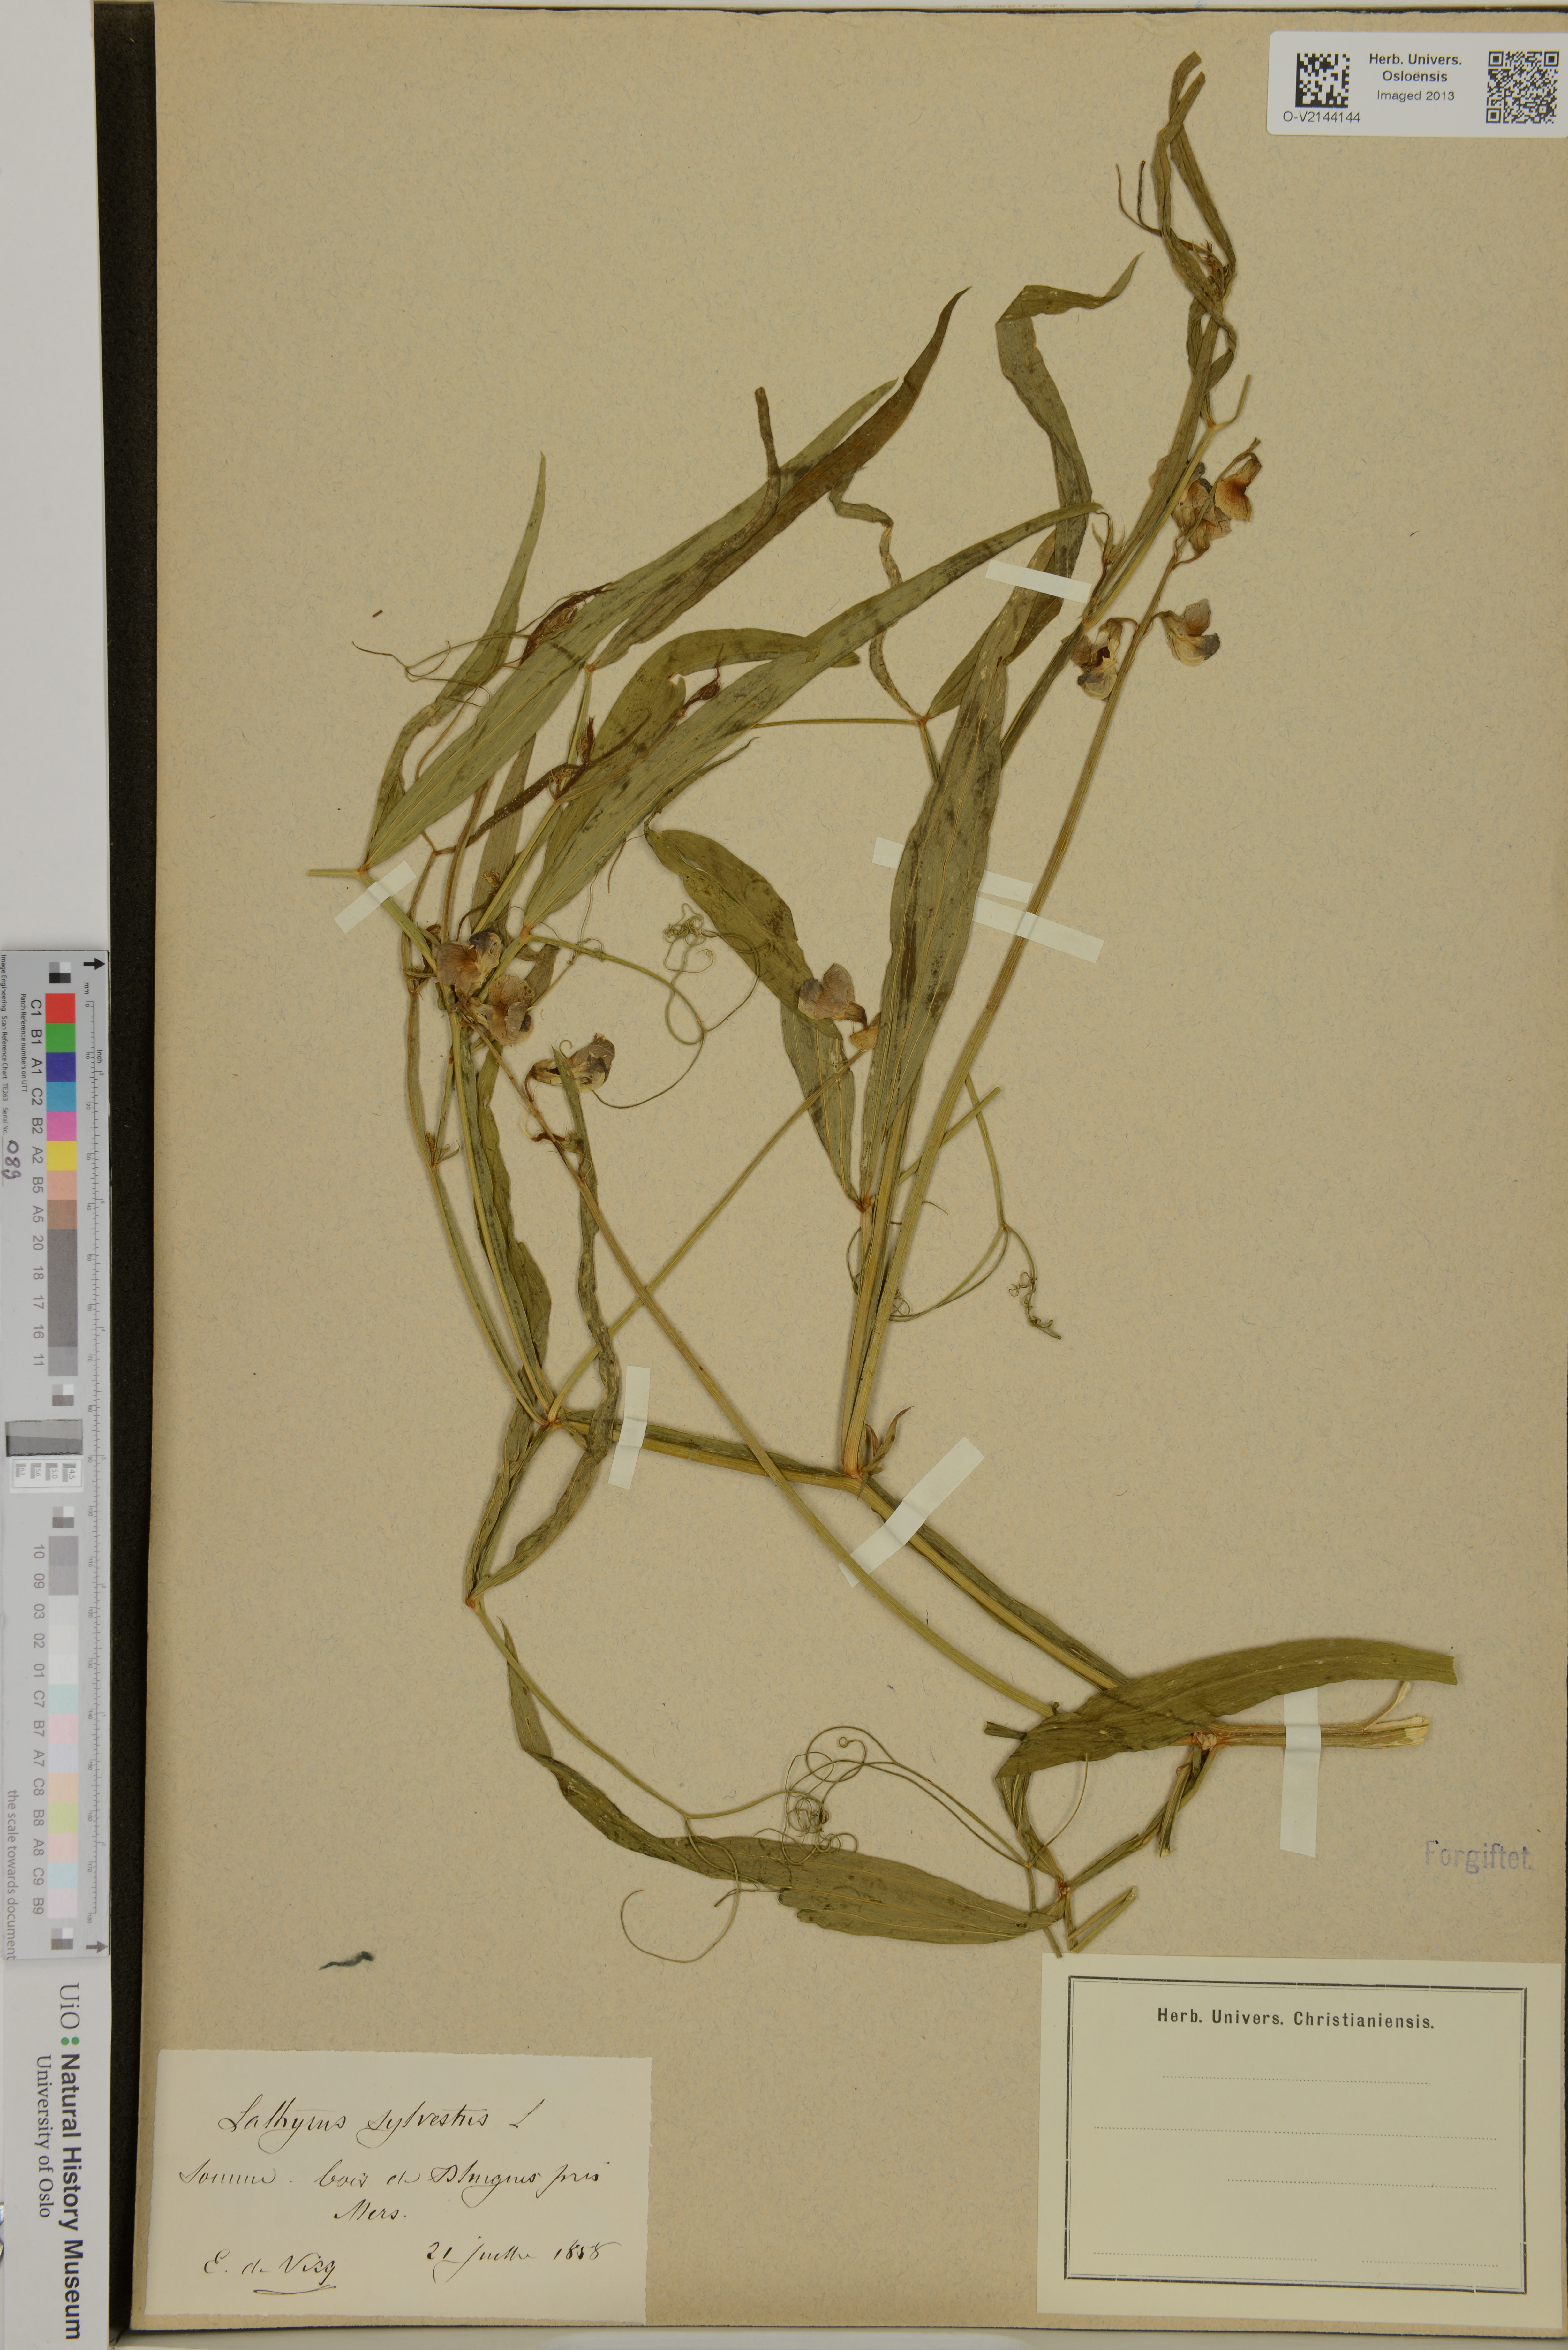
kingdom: Plantae
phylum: Tracheophyta
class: Magnoliopsida
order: Fabales
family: Fabaceae
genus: Lathyrus
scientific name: Lathyrus sylvestris
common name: Flat pea
